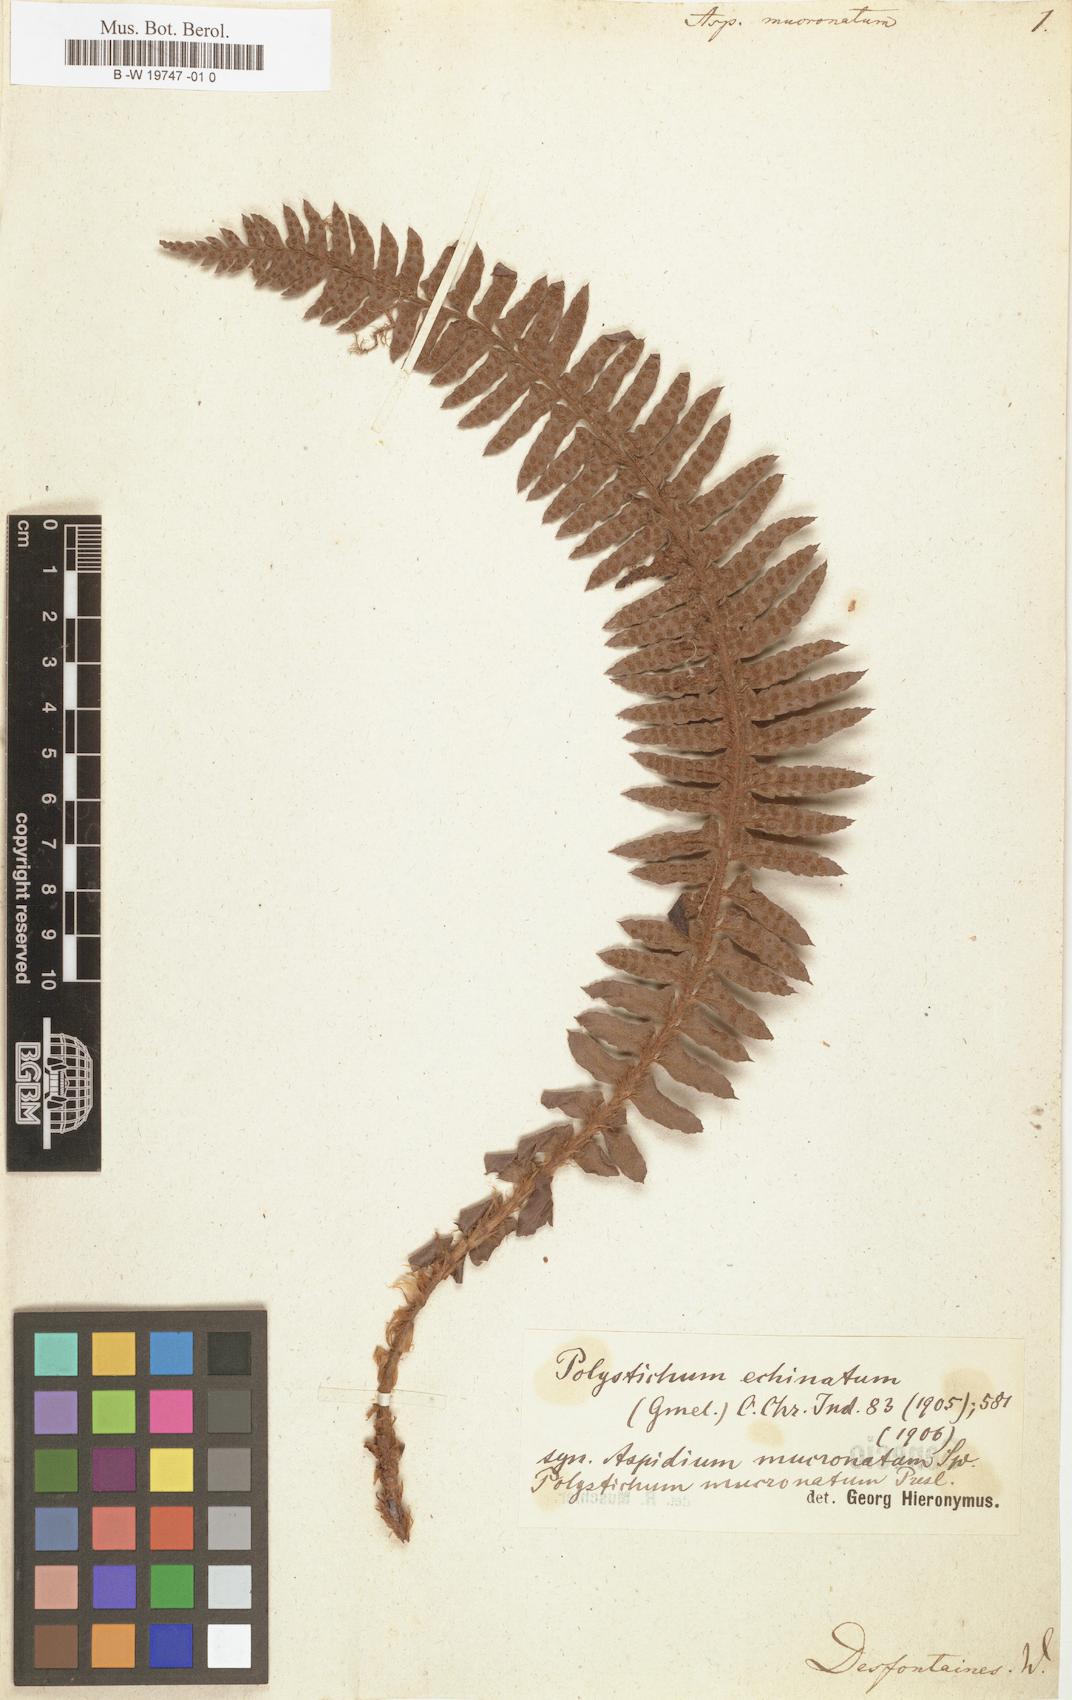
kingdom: Plantae
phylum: Tracheophyta
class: Polypodiopsida
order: Polypodiales
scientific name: Polypodiales
